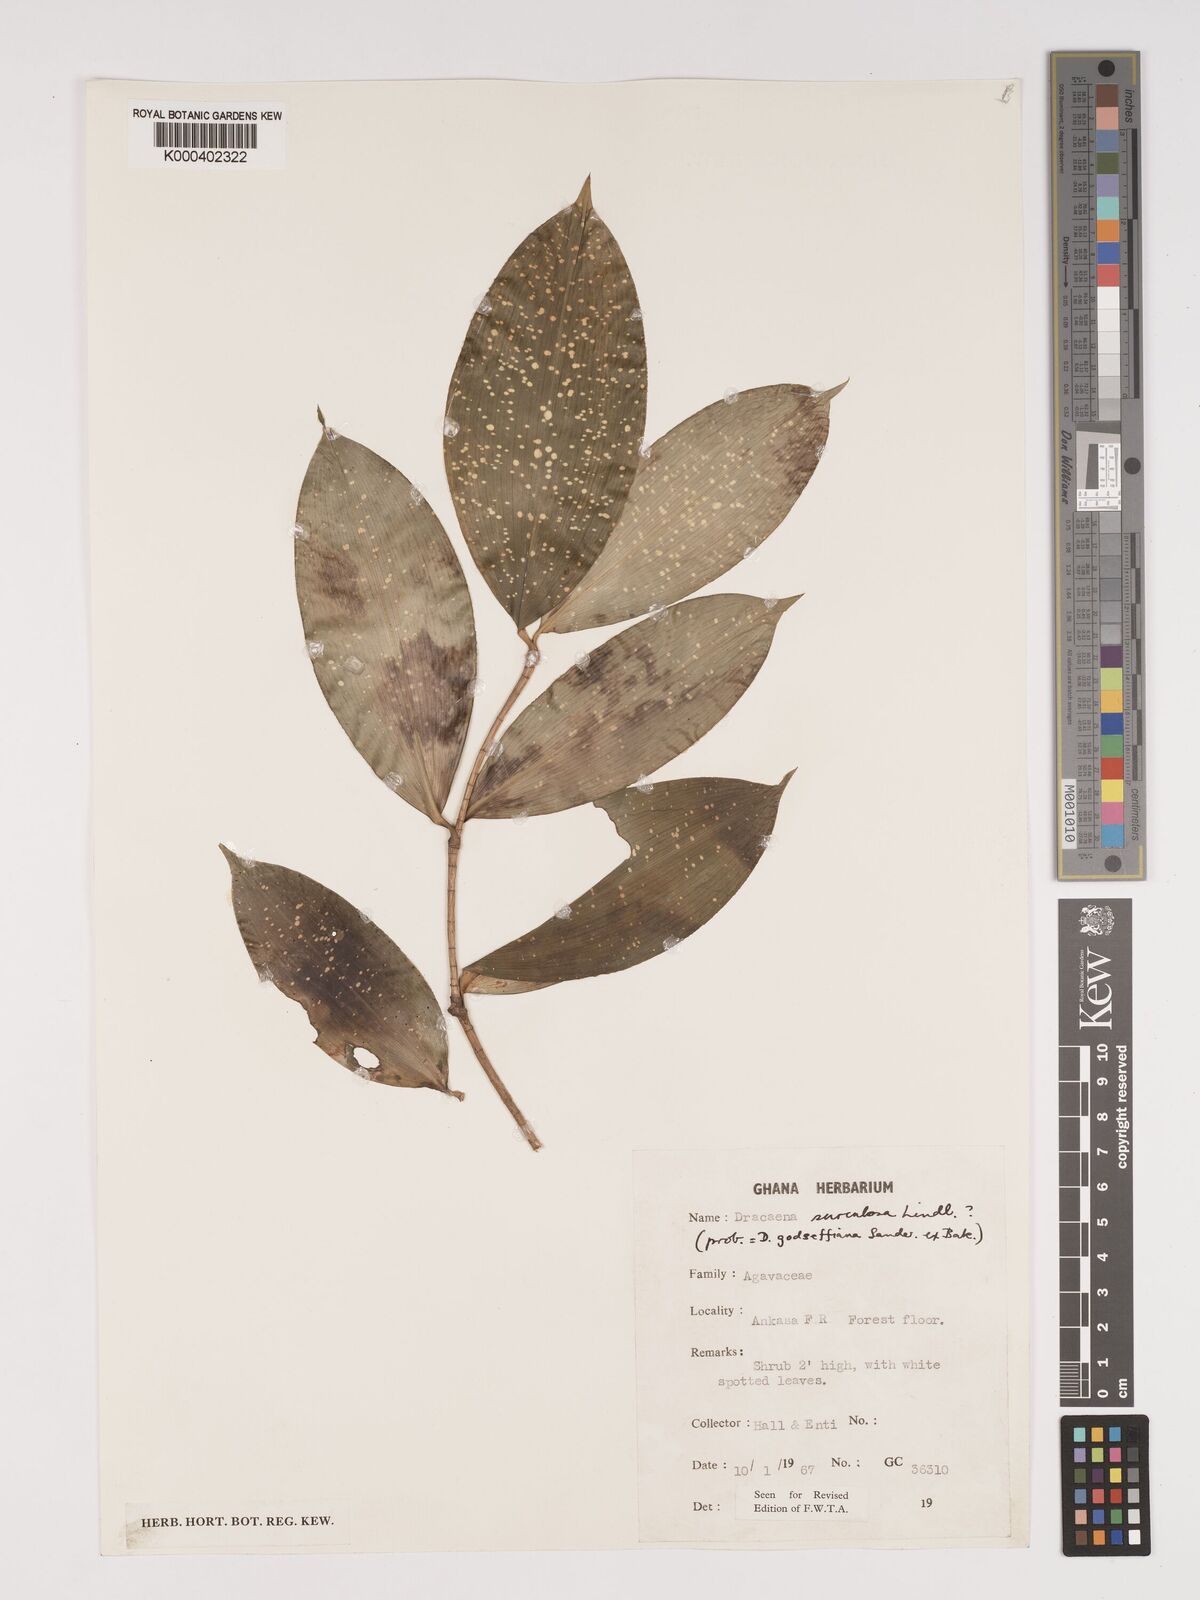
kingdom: Plantae
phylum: Tracheophyta
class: Liliopsida
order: Asparagales
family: Asparagaceae
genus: Dracaena
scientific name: Dracaena surculosa
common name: Spotted dracaena
